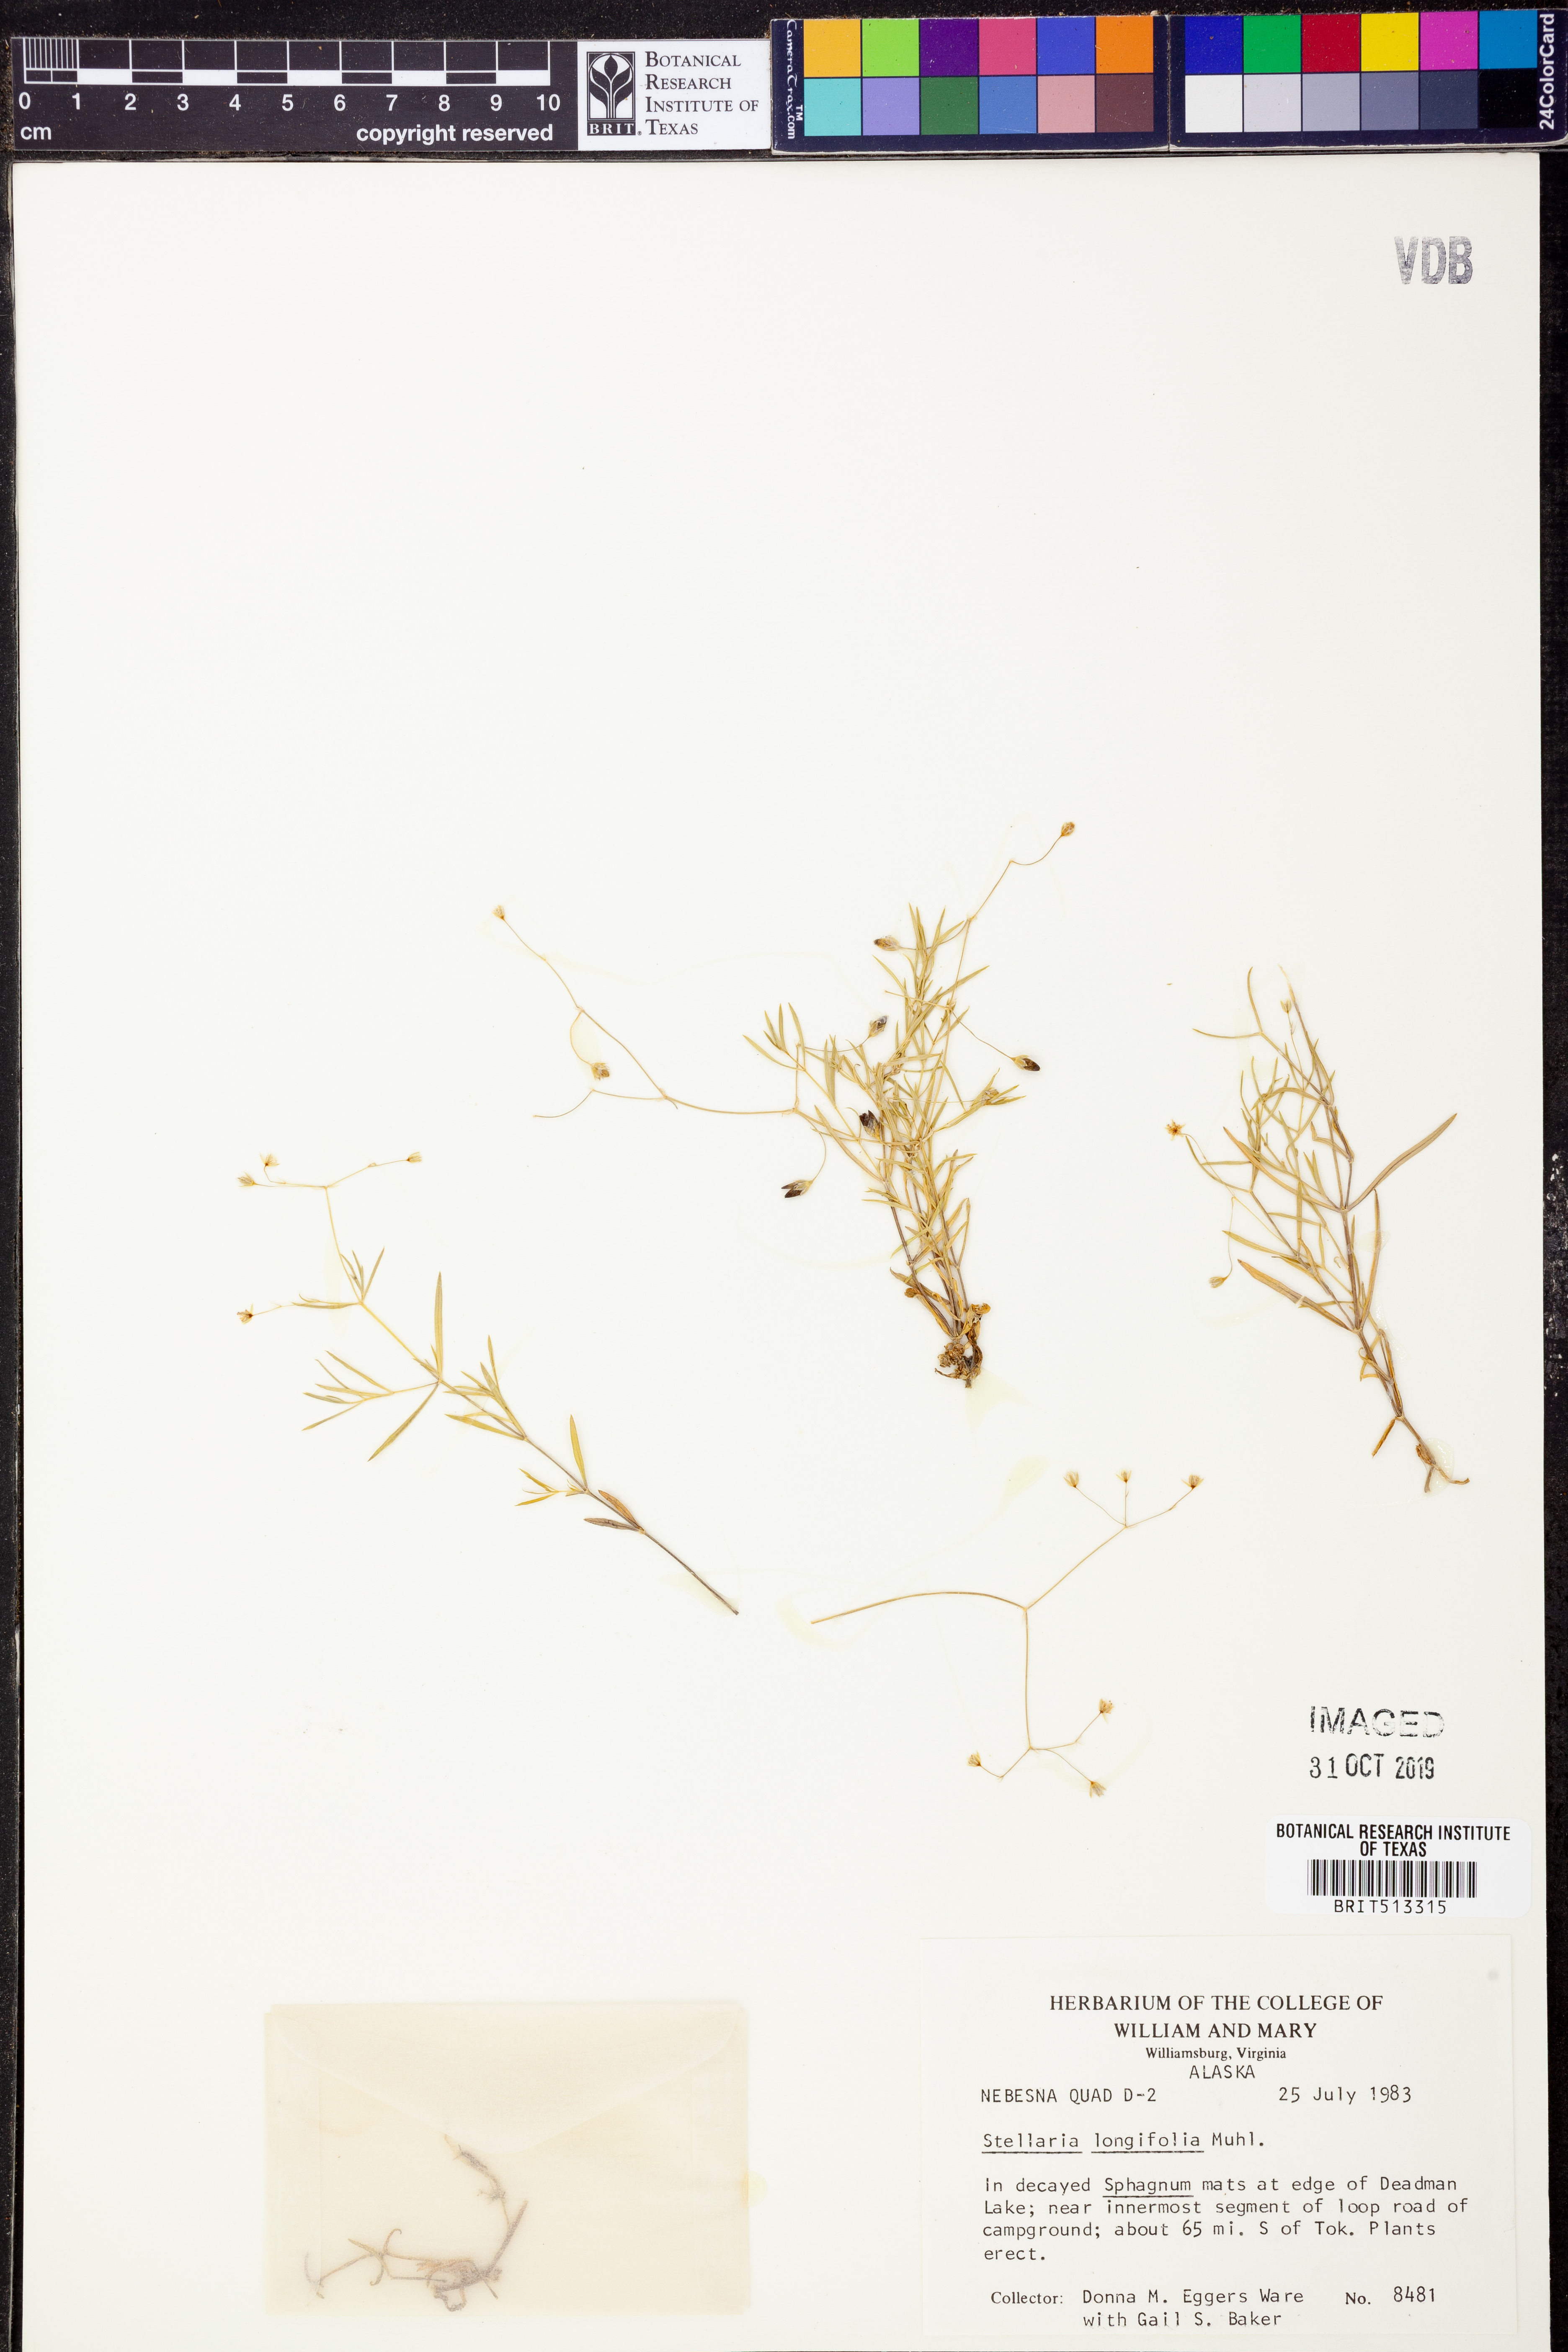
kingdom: Plantae
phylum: Tracheophyta
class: Magnoliopsida
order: Caryophyllales
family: Caryophyllaceae
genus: Stellaria
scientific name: Stellaria longifolia
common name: Long-leaved chickweed
